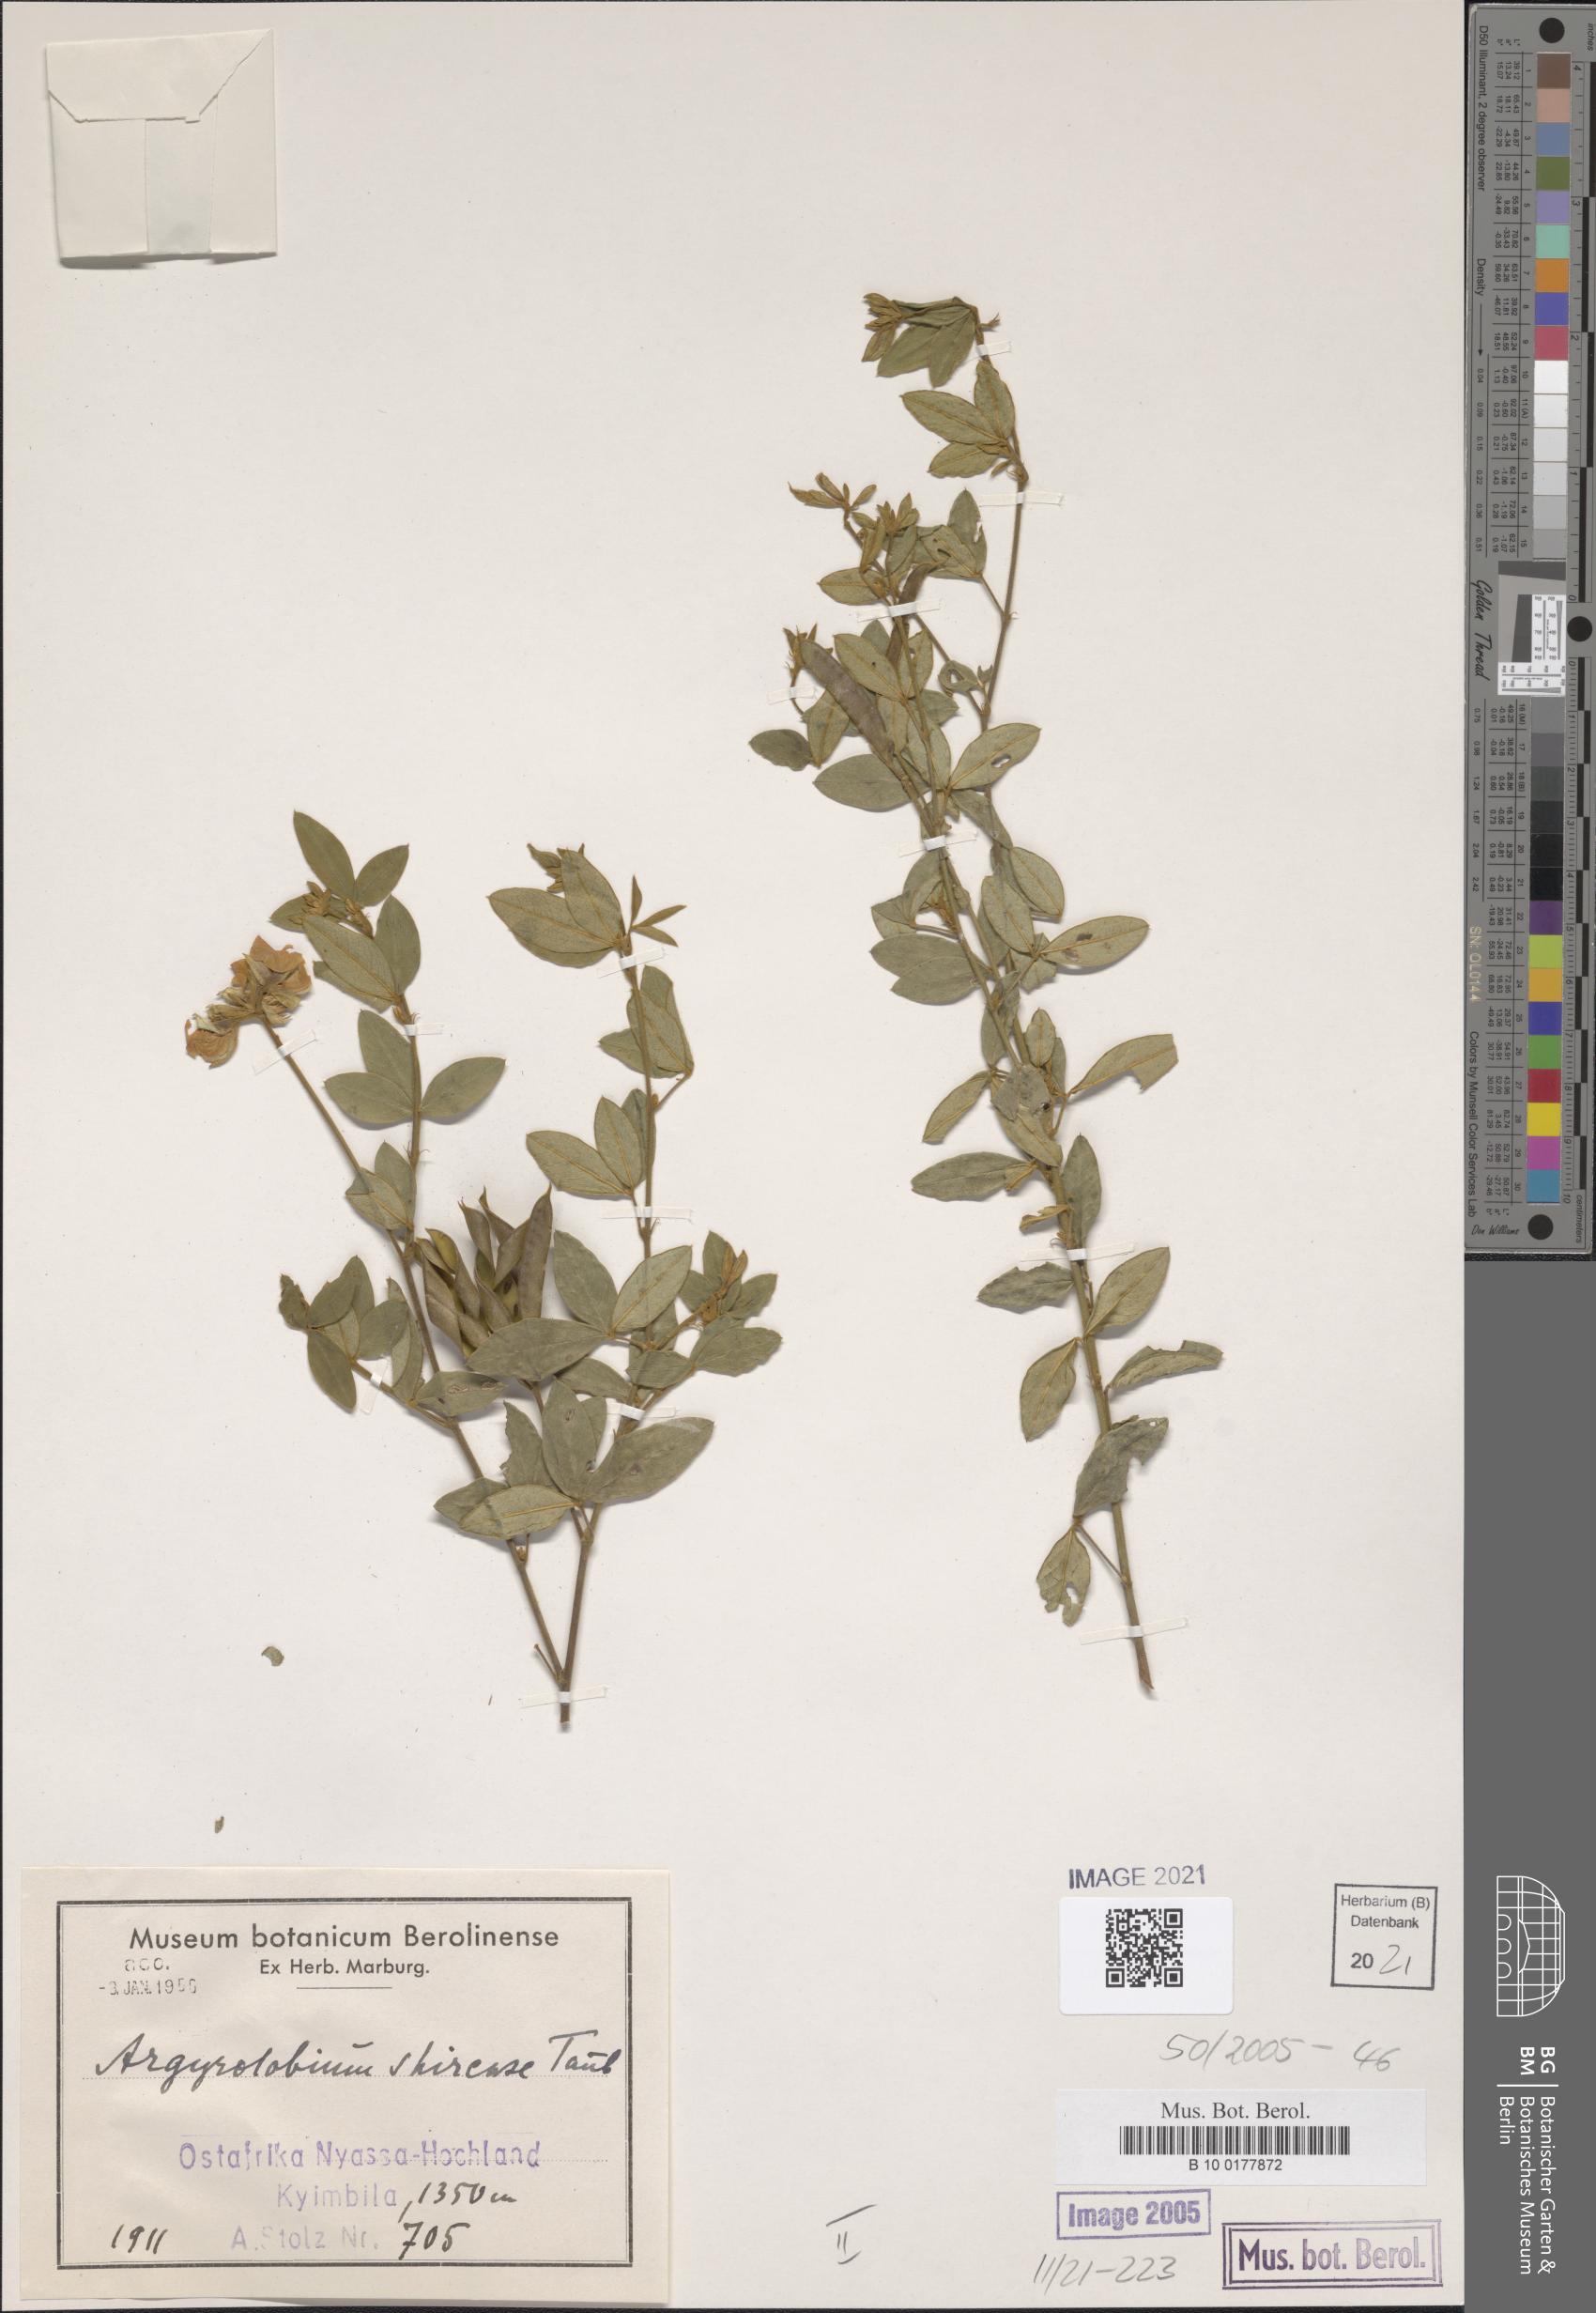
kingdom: Plantae
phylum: Tracheophyta
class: Magnoliopsida
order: Fabales
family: Fabaceae
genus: Argyrolobium
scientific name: Argyrolobium tomentosum
